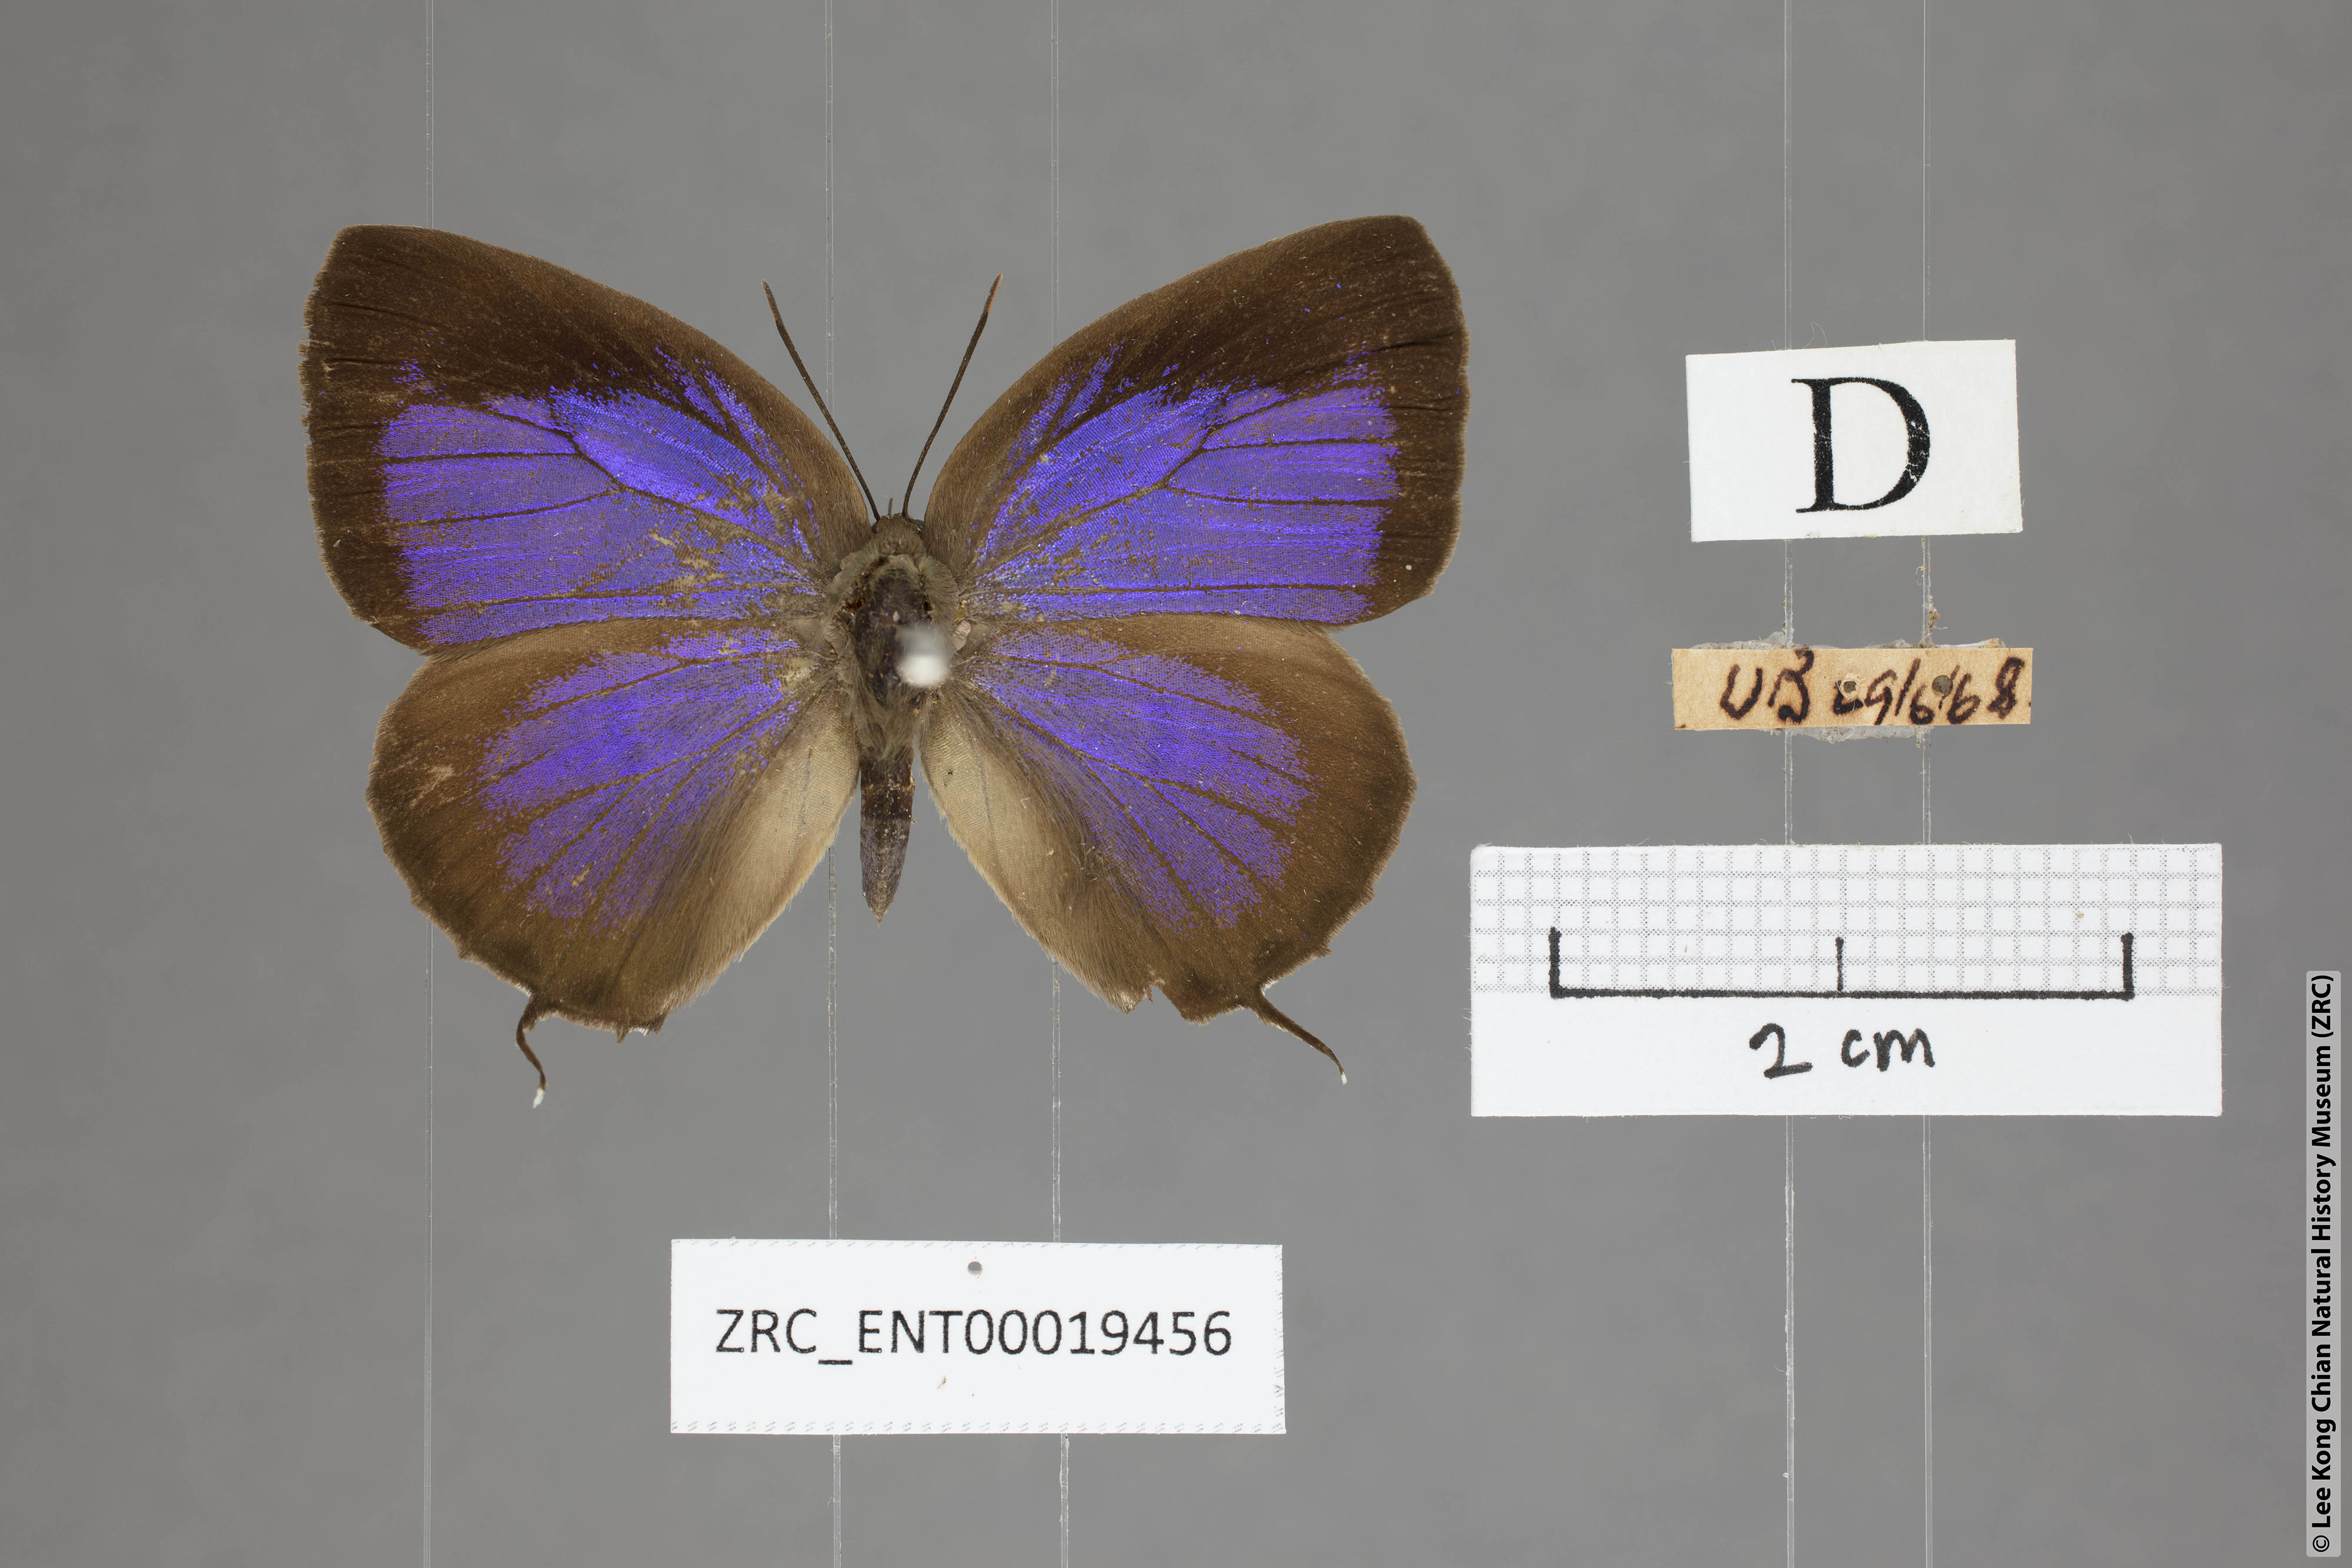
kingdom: Animalia
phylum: Arthropoda
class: Insecta
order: Lepidoptera
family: Lycaenidae
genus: Arhopala
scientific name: Arhopala eumolphus
